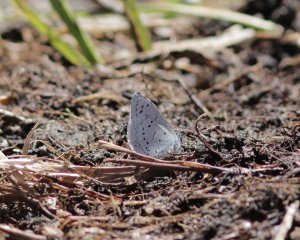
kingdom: Animalia
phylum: Arthropoda
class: Insecta
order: Lepidoptera
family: Lycaenidae
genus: Celastrina
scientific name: Celastrina ladon
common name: Echo Azure
